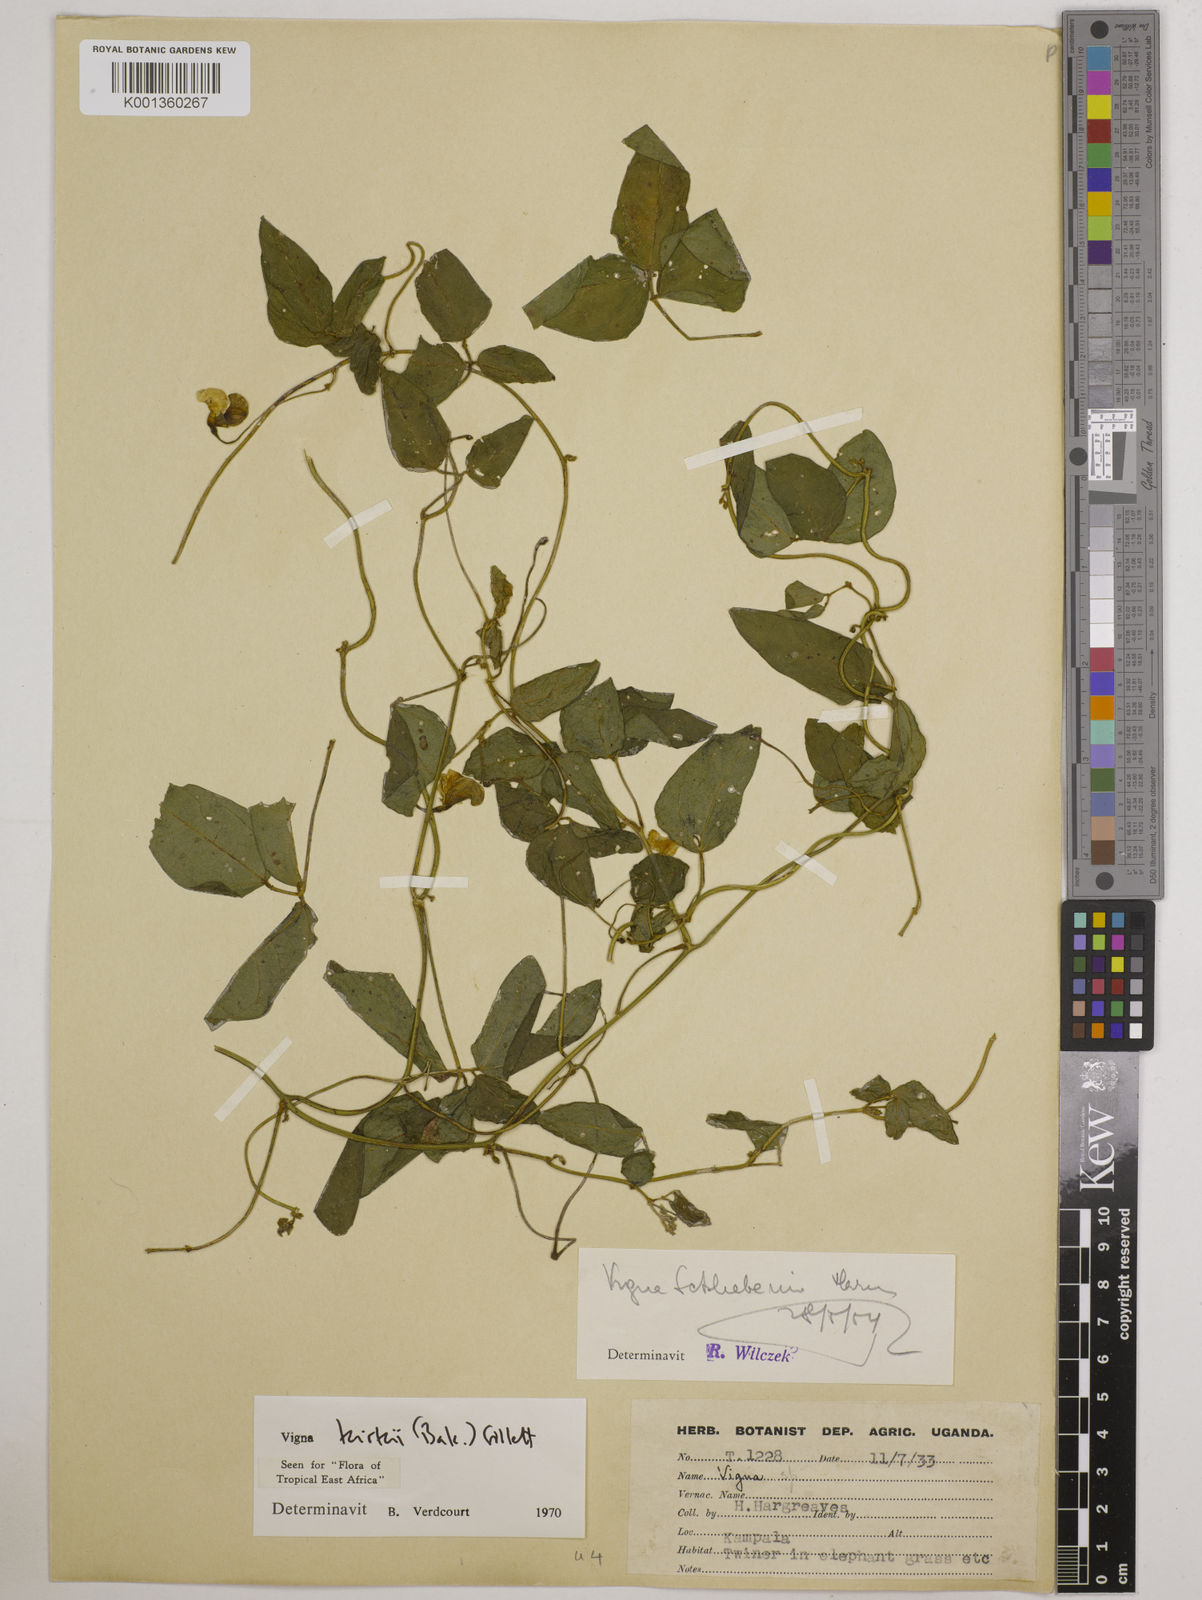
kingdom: Plantae
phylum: Tracheophyta
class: Magnoliopsida
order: Fabales
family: Fabaceae
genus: Vigna
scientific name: Vigna kirkii
